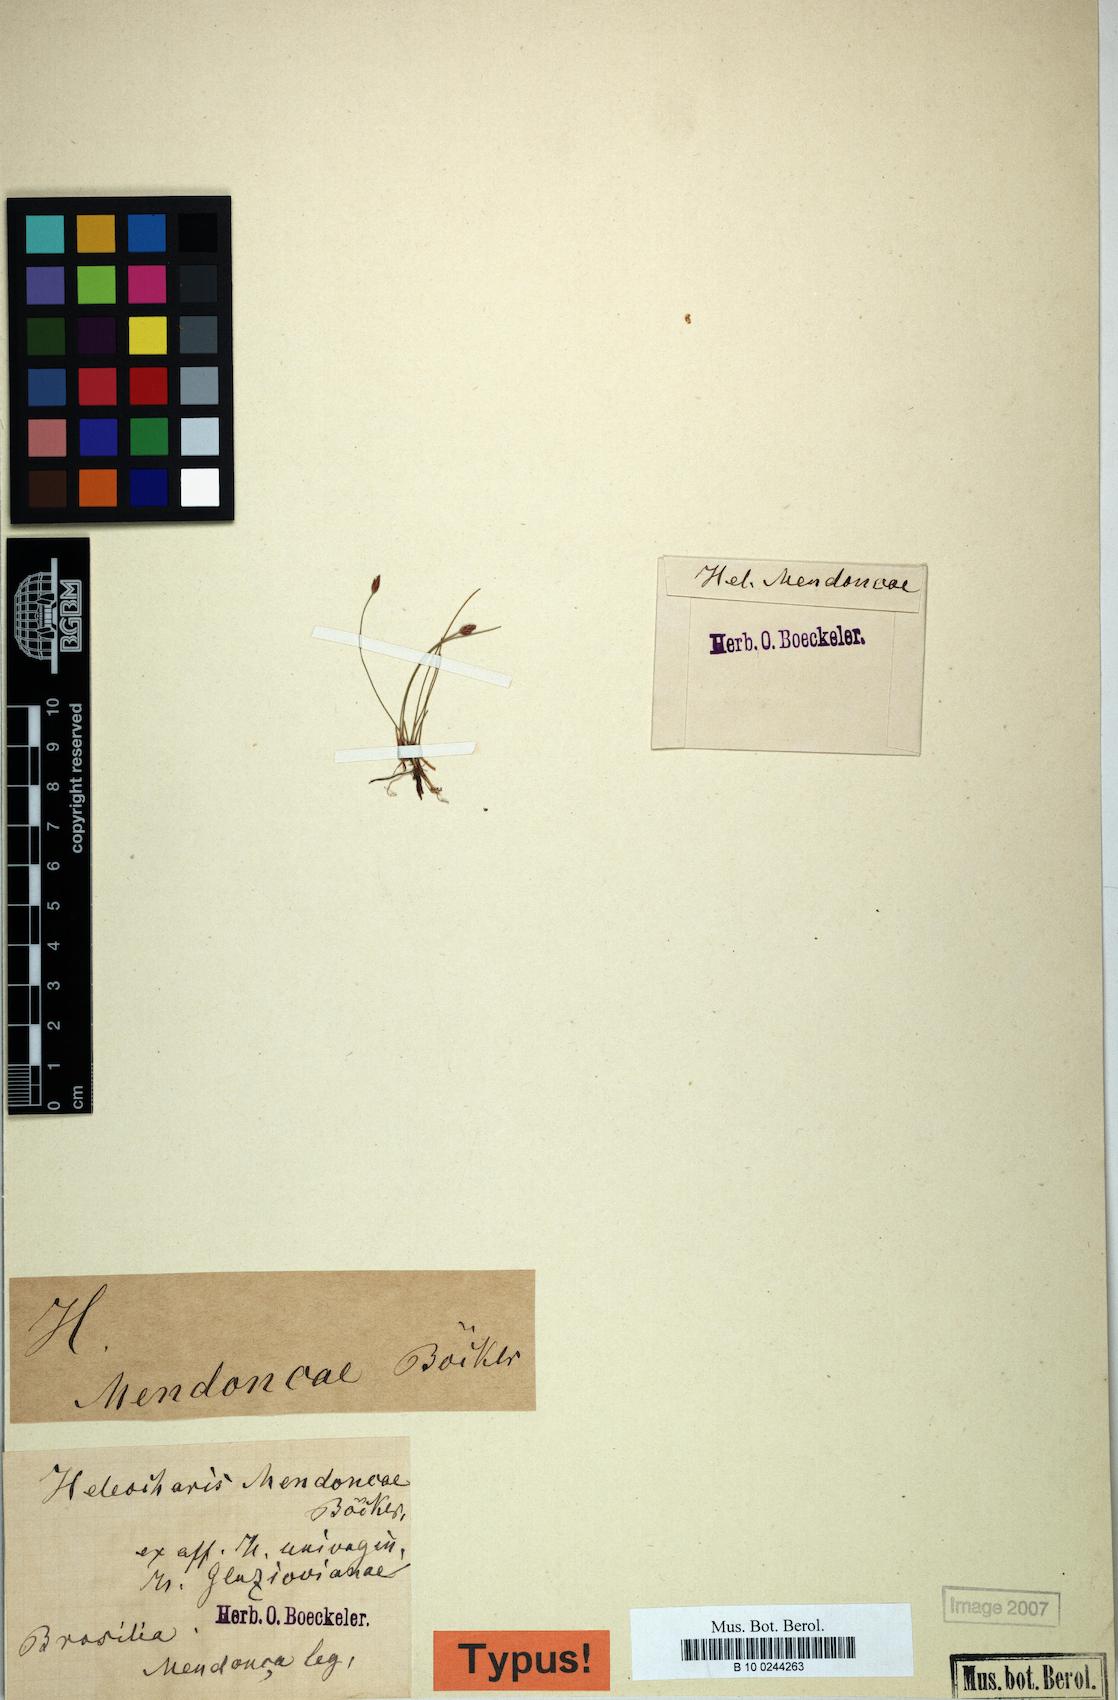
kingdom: Plantae
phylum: Tracheophyta
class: Liliopsida
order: Poales
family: Cyperaceae
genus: Eleocharis
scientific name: Eleocharis maculosa
